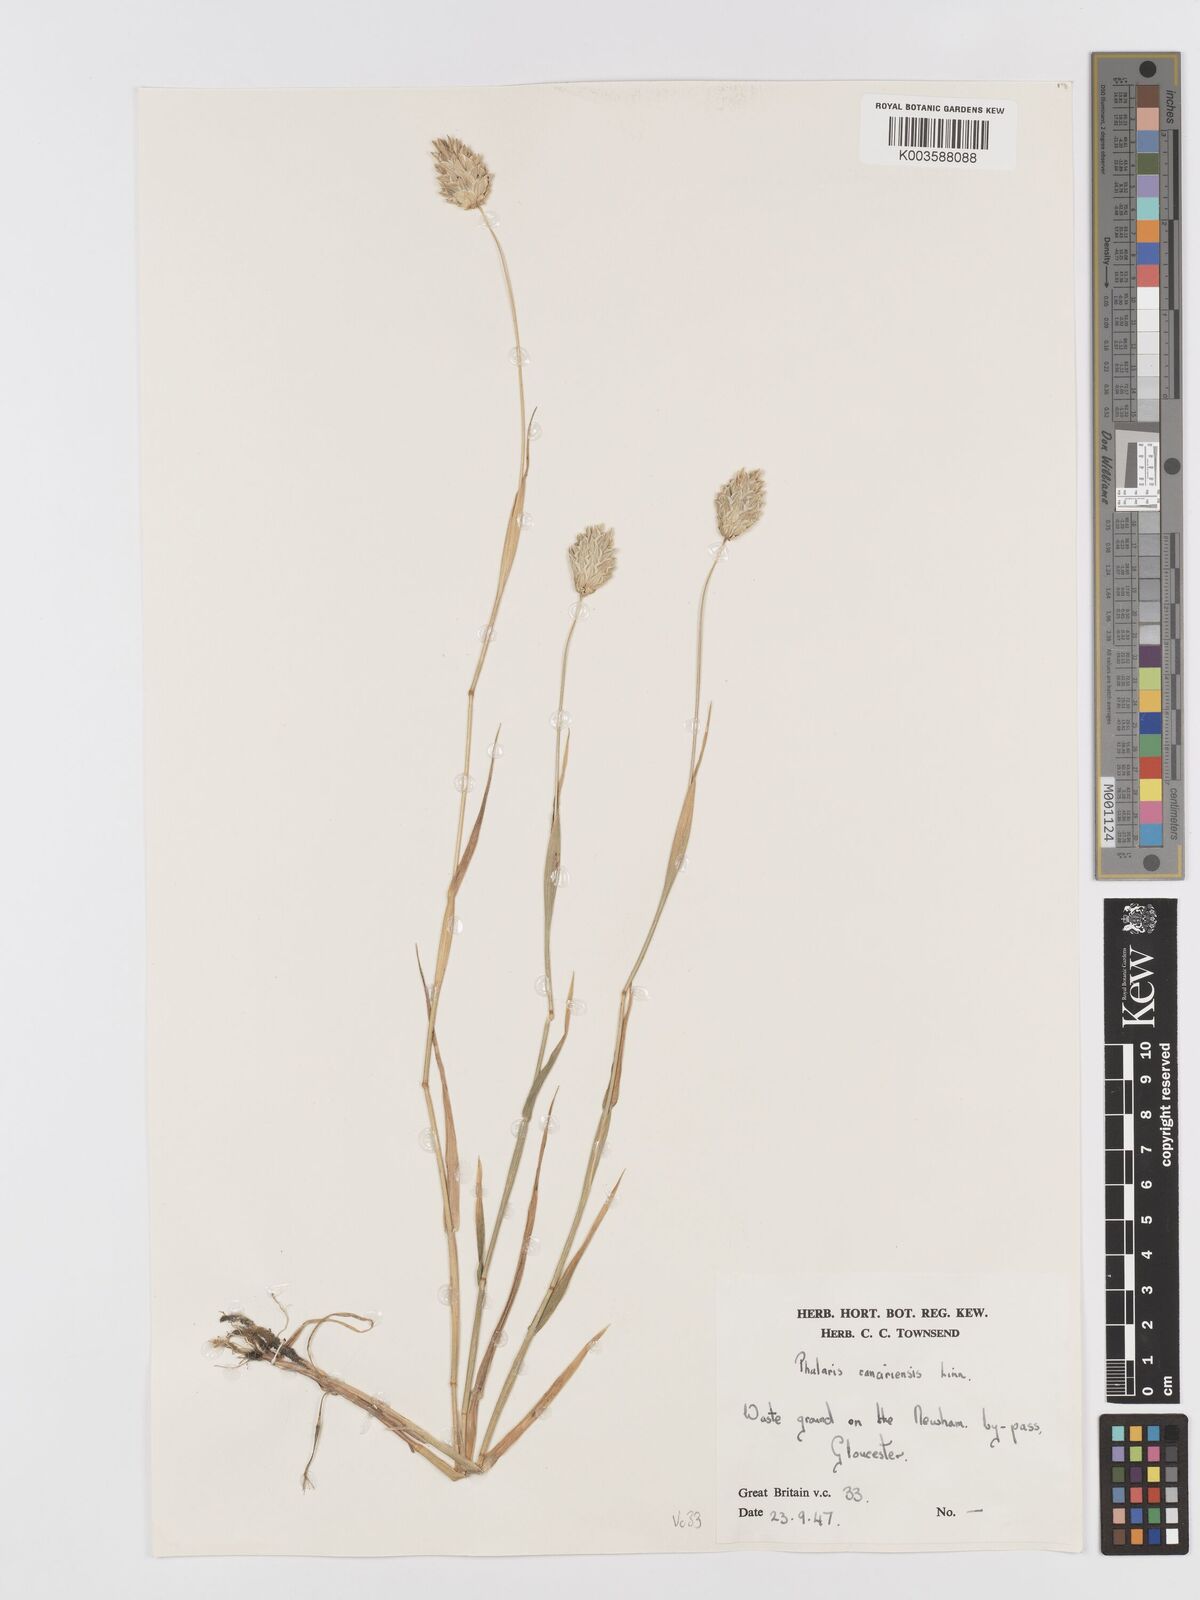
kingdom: Plantae
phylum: Tracheophyta
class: Liliopsida
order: Poales
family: Poaceae
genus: Phalaris
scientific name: Phalaris canariensis
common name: Annual canarygrass
